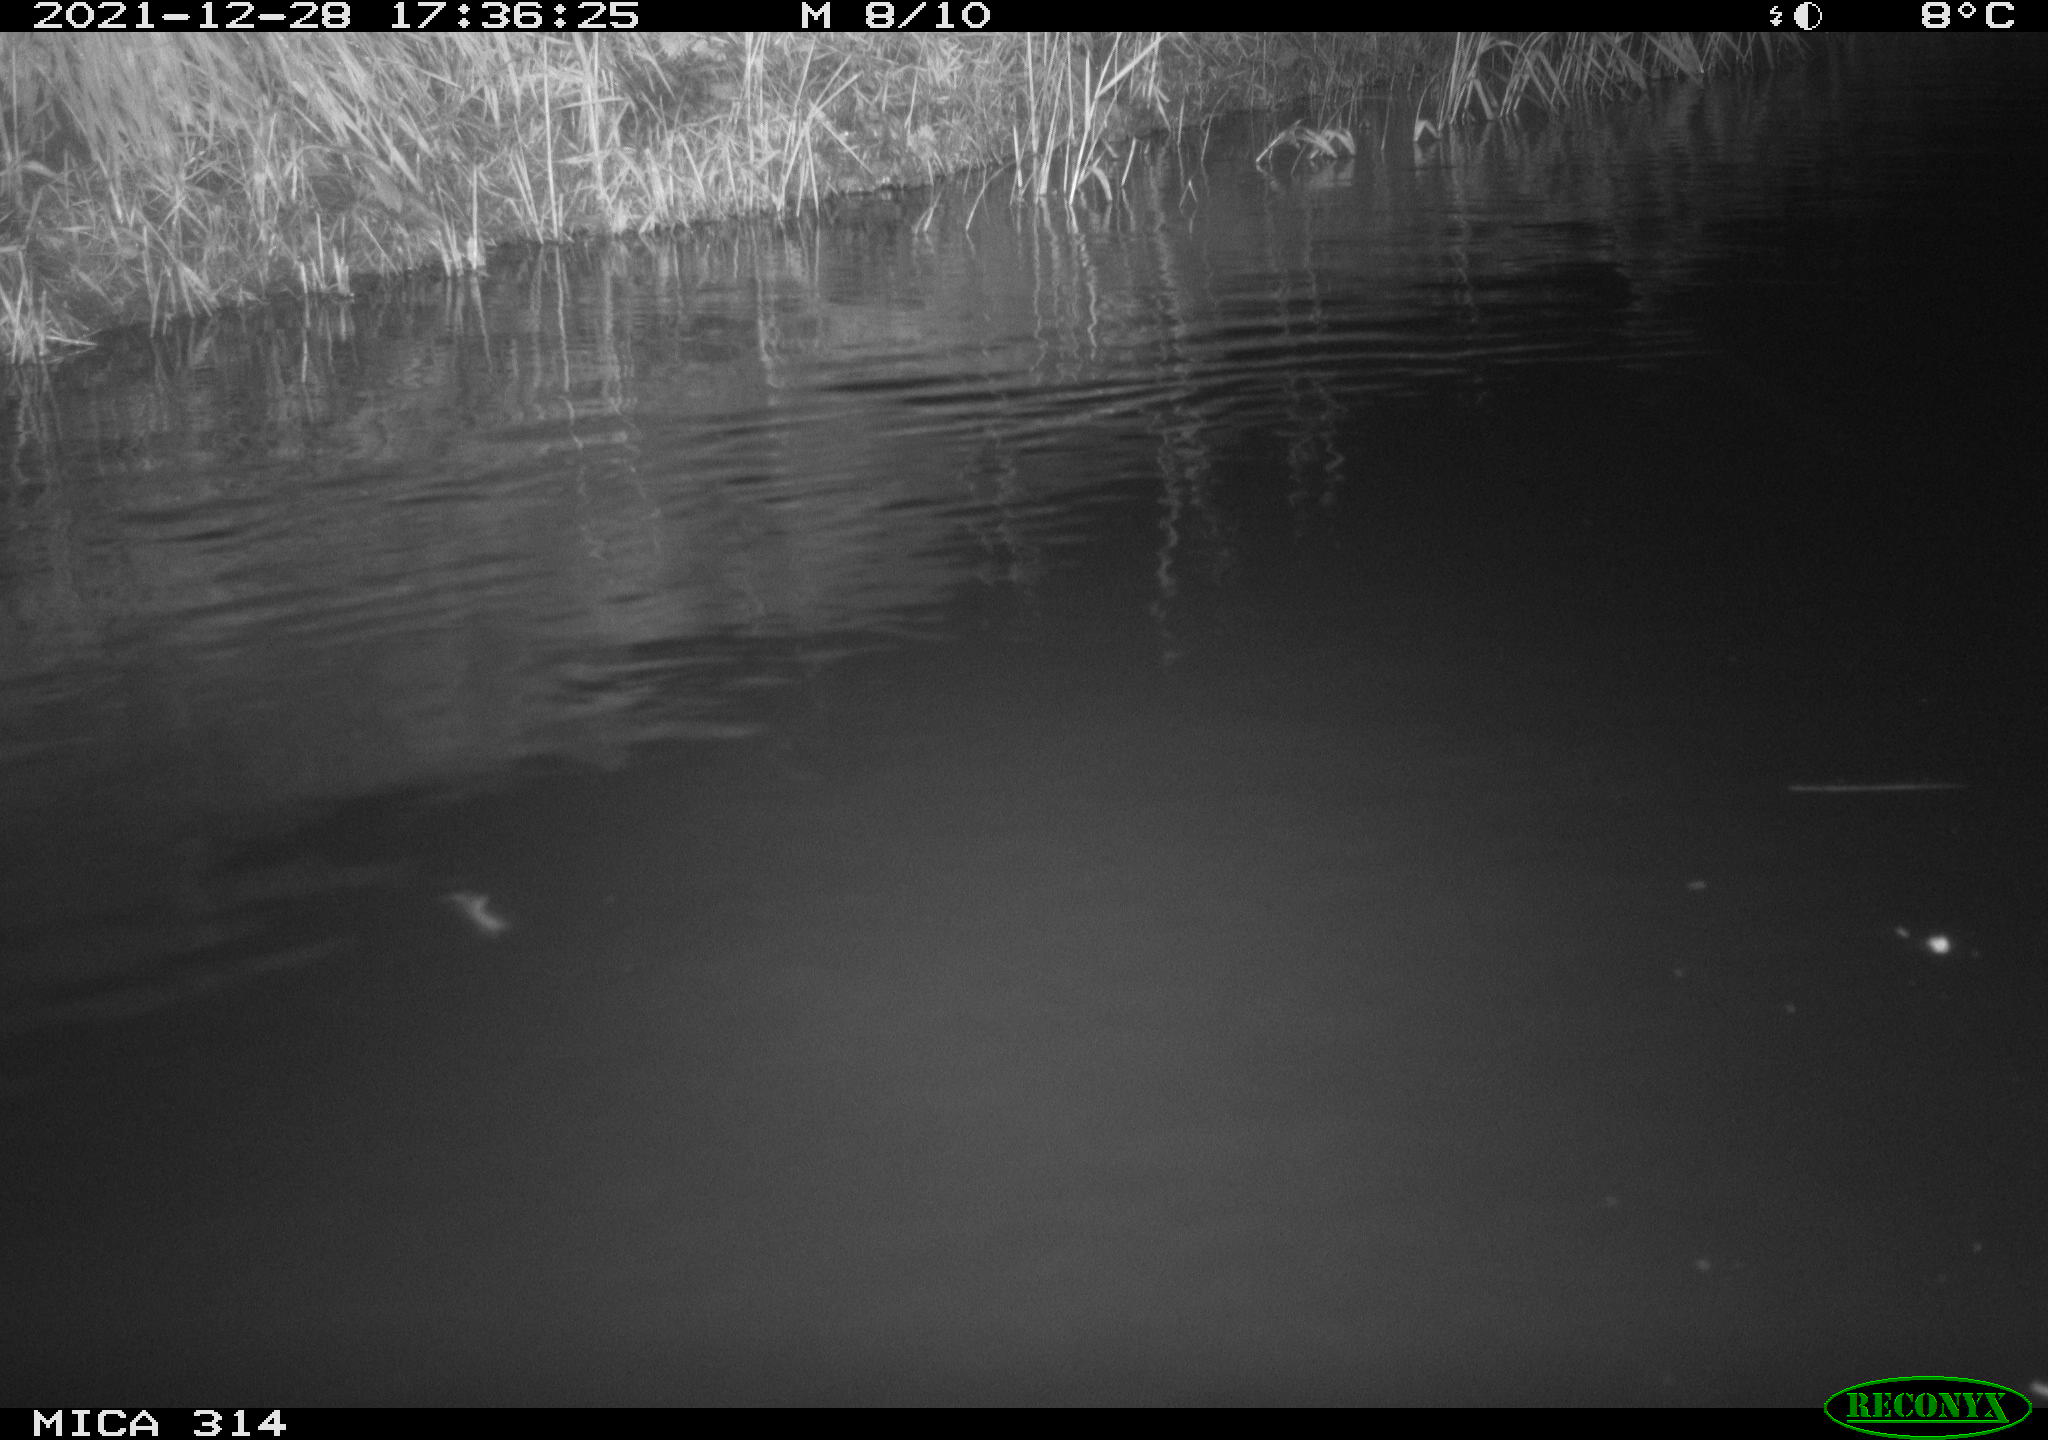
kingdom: Animalia
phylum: Chordata
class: Aves
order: Gruiformes
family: Rallidae
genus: Gallinula
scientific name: Gallinula chloropus
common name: Common moorhen
